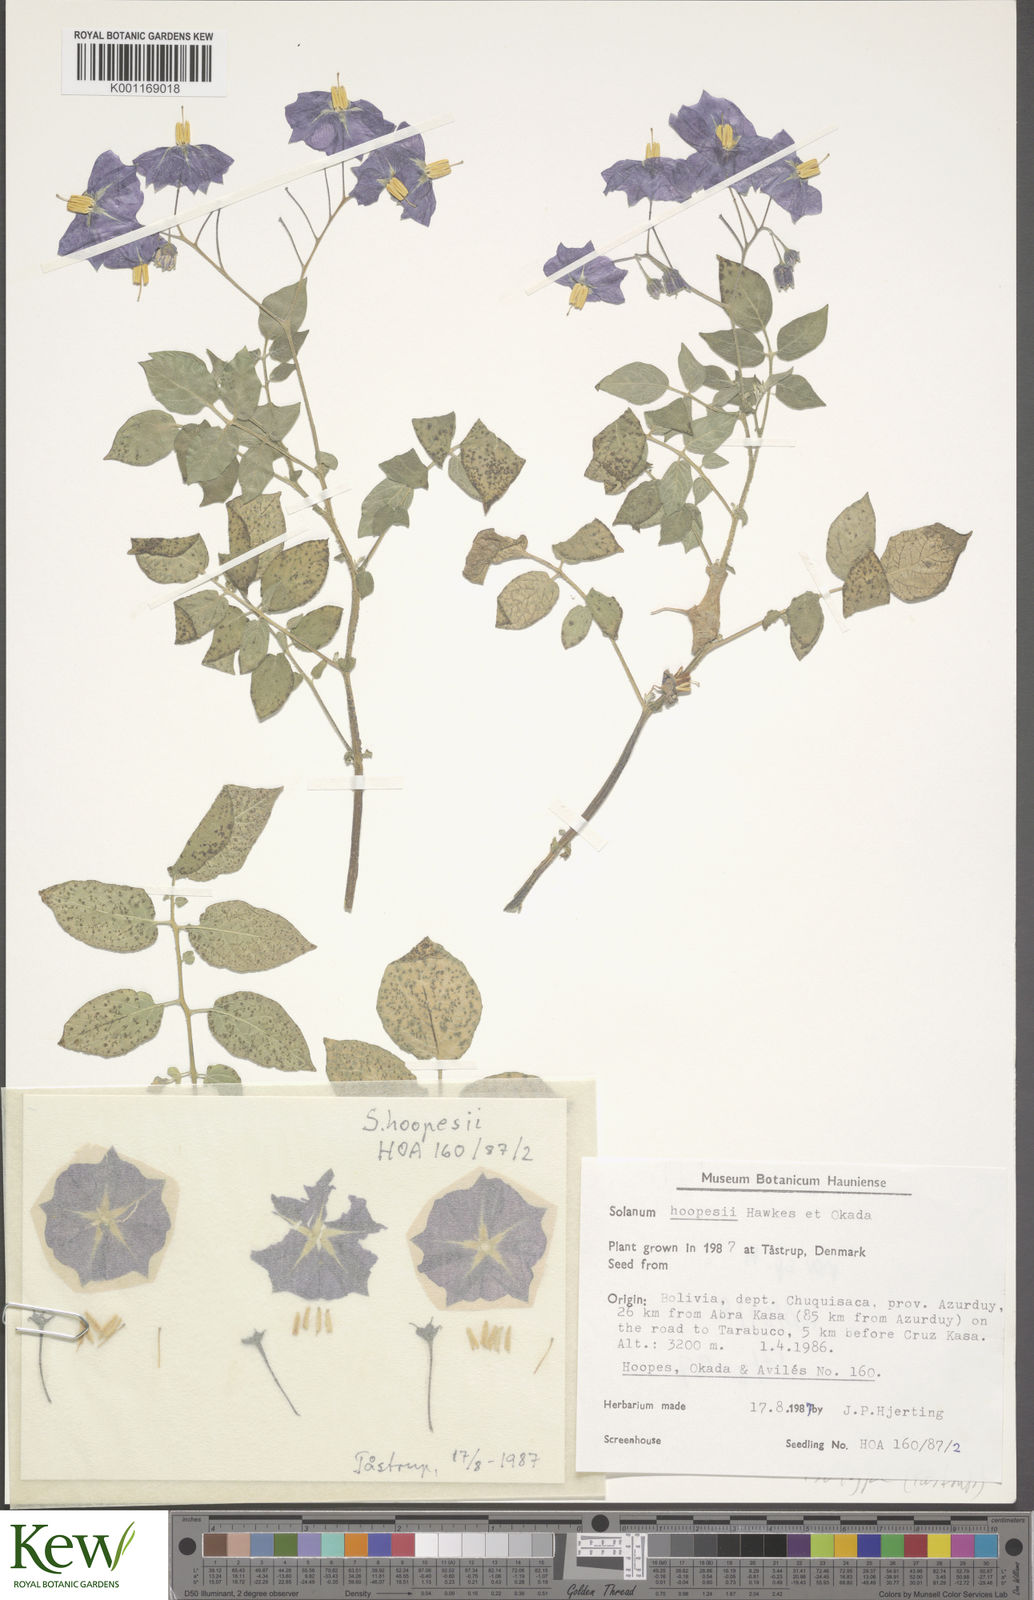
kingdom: Plantae
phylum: Tracheophyta
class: Magnoliopsida
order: Solanales
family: Solanaceae
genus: Solanum
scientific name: Solanum brevicaule
